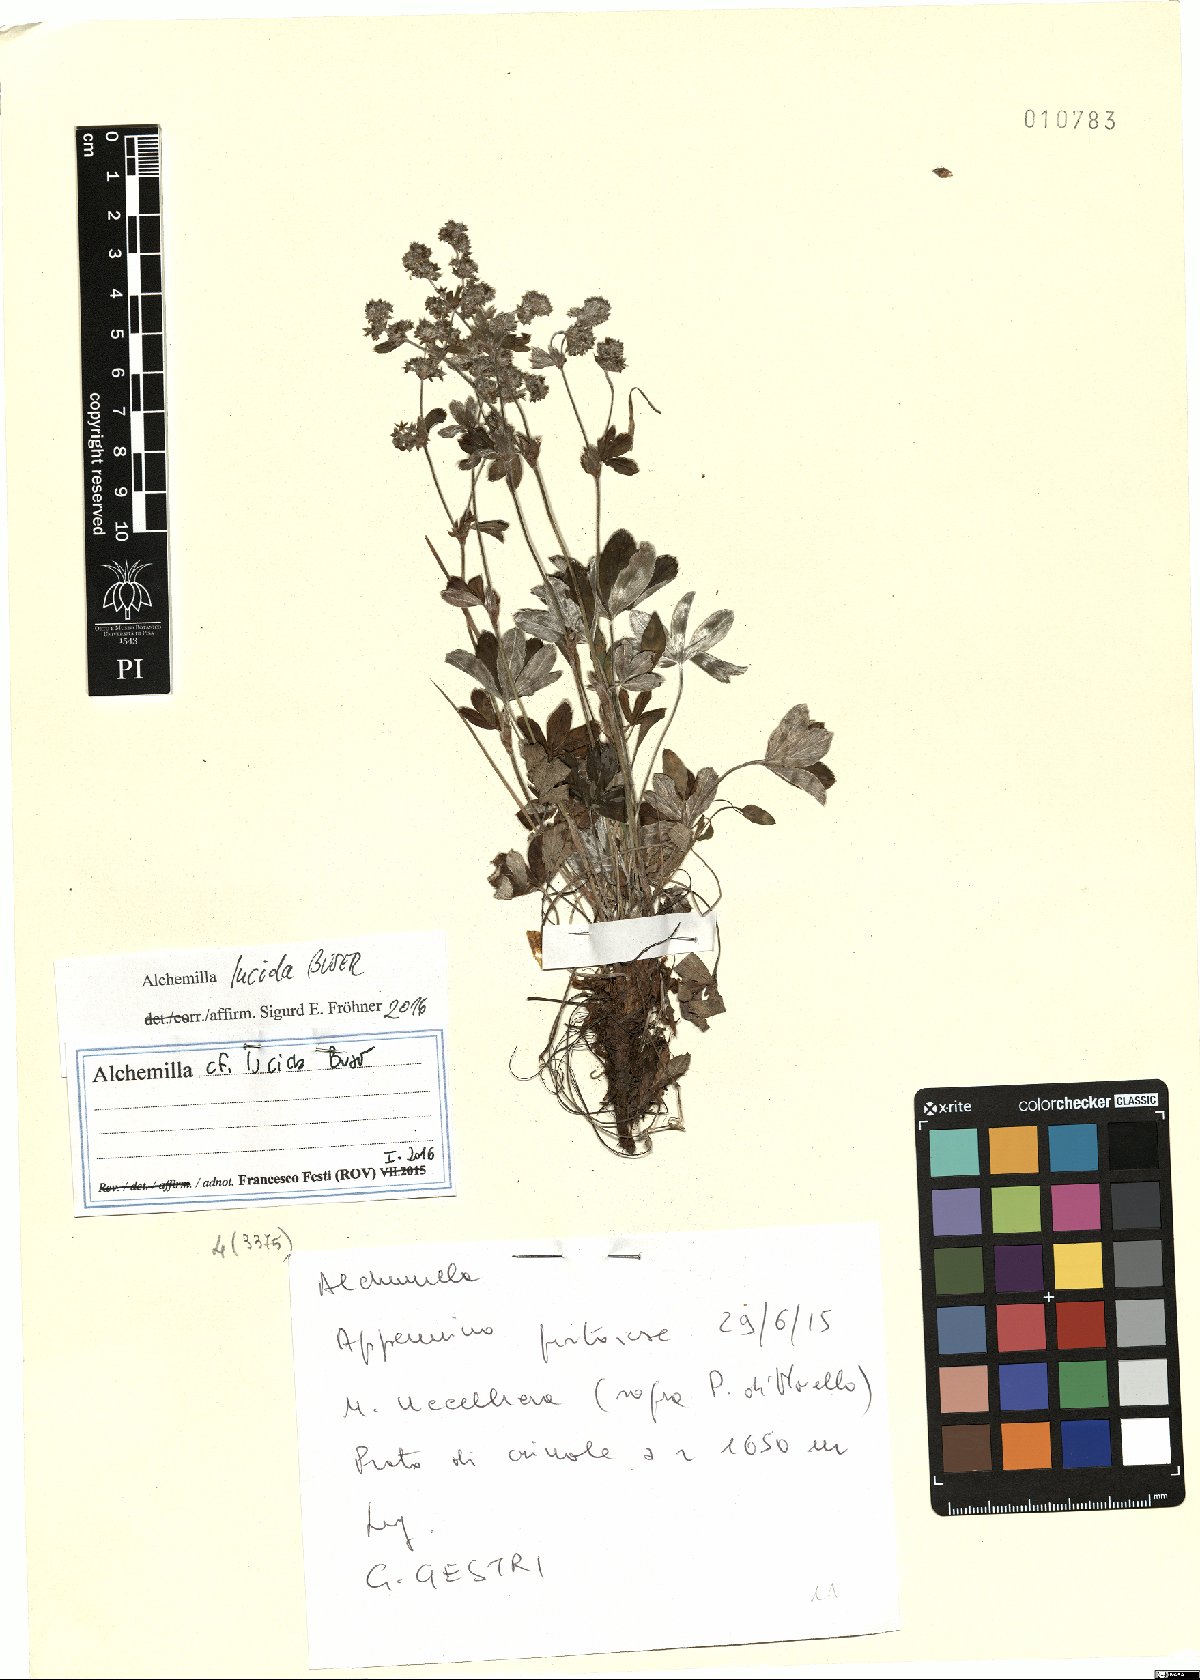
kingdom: Plantae
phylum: Tracheophyta
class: Magnoliopsida
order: Rosales
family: Rosaceae
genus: Alchemilla
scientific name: Alchemilla lucida
